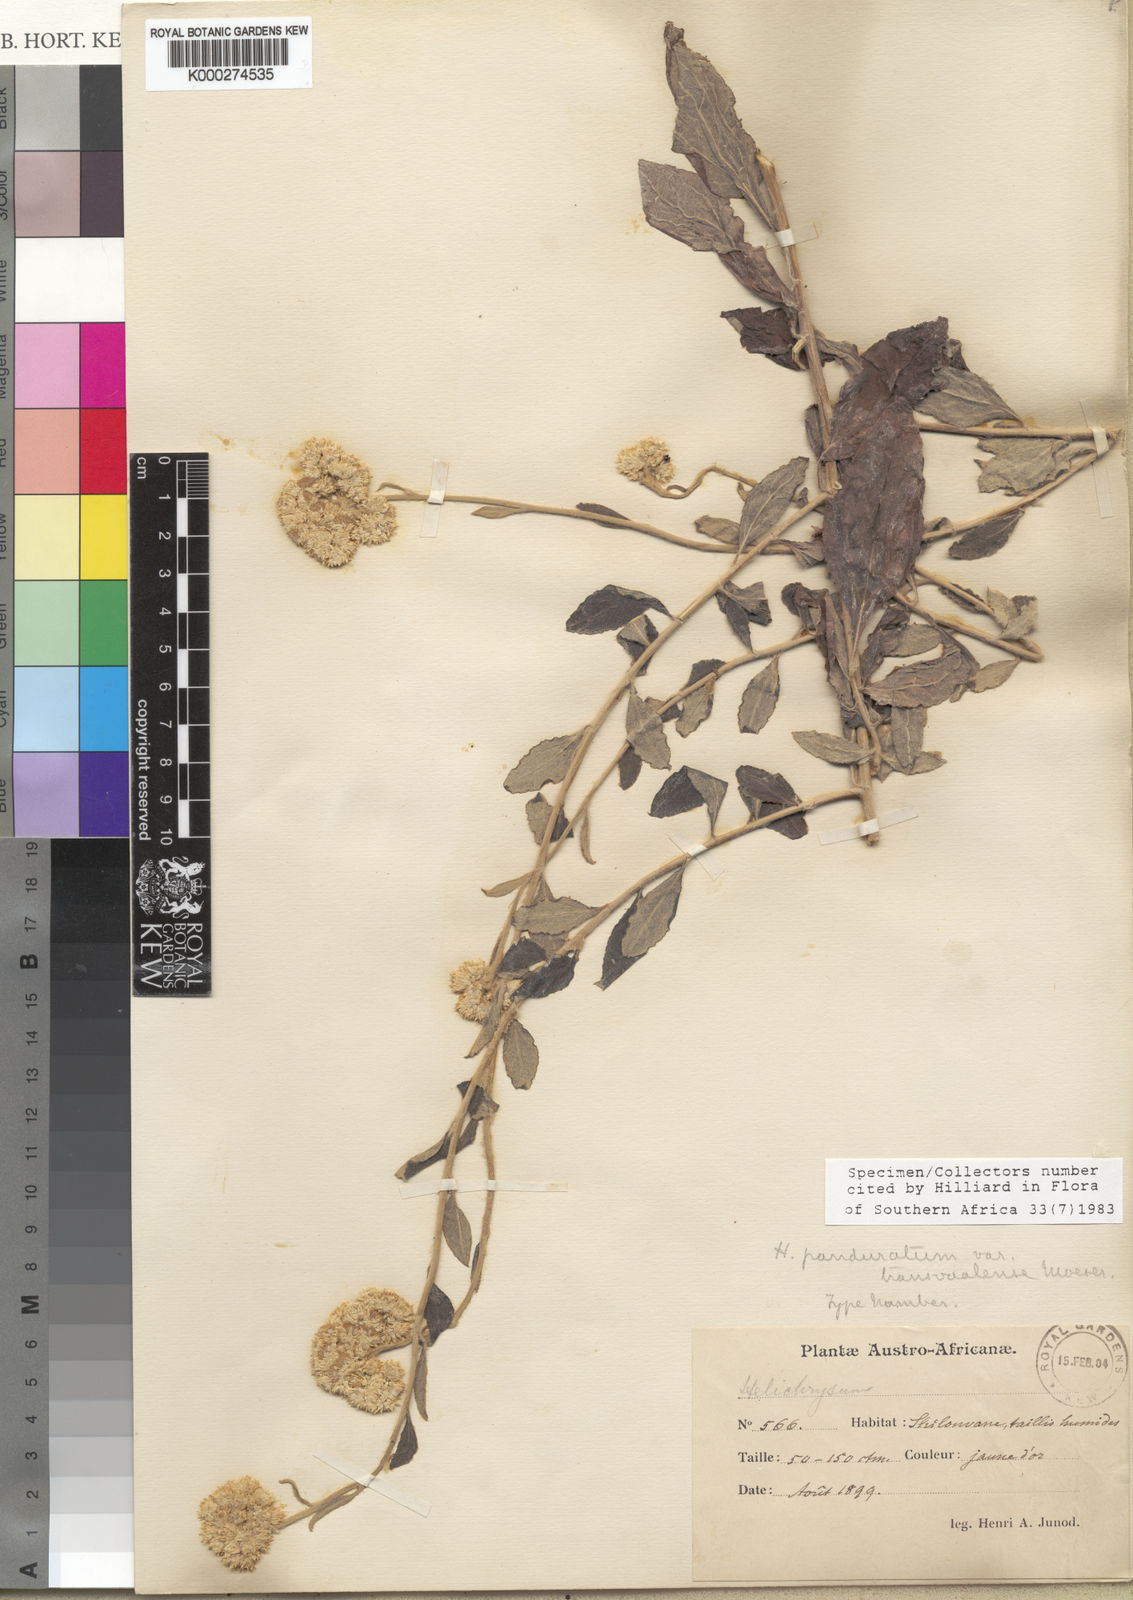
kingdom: Plantae
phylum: Tracheophyta
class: Magnoliopsida
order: Asterales
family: Asteraceae
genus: Helichrysum
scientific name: Helichrysum
